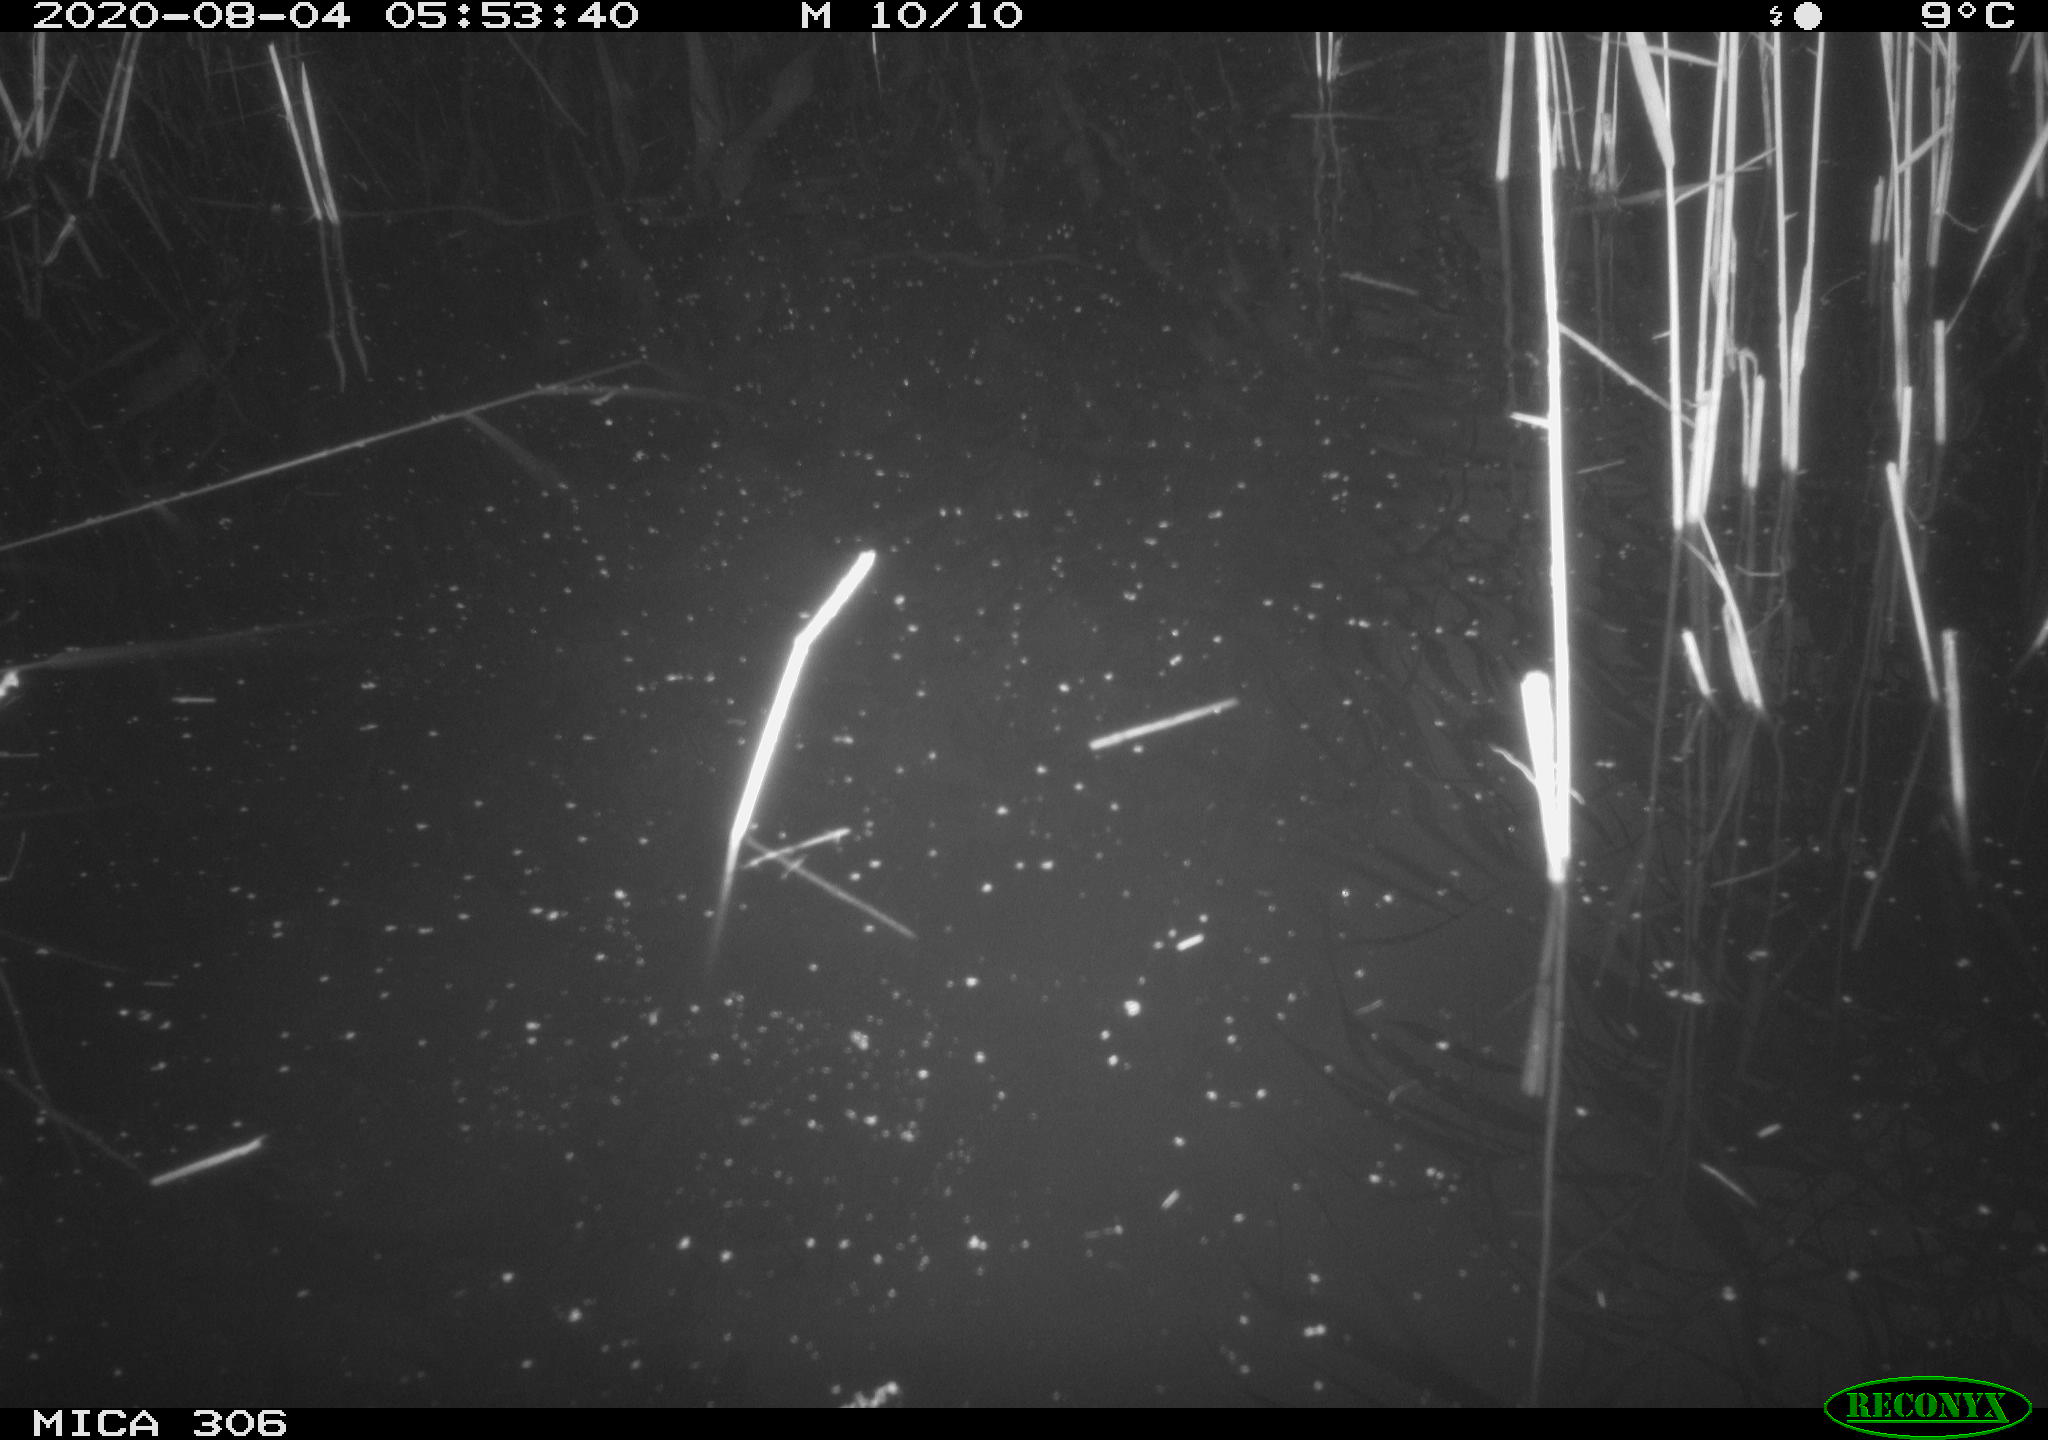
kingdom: Animalia
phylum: Chordata
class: Mammalia
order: Rodentia
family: Muridae
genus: Rattus
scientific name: Rattus norvegicus
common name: Brown rat
